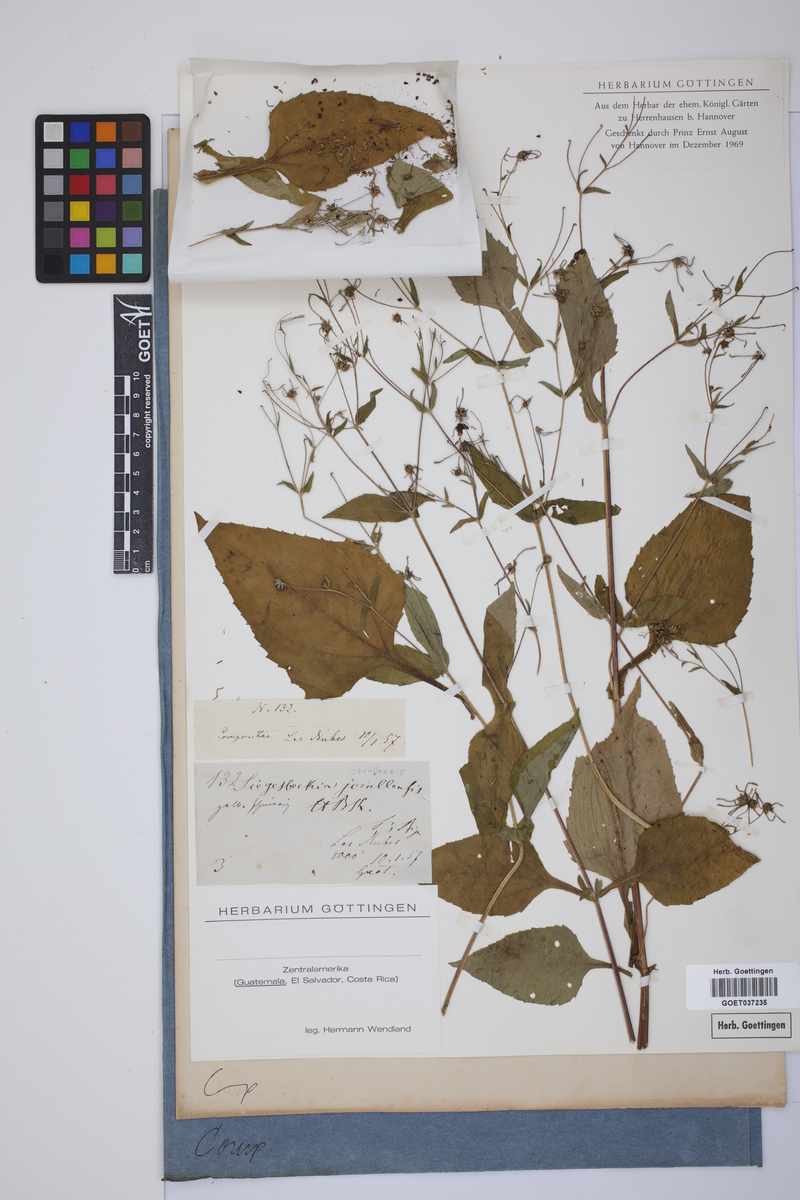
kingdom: Plantae
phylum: Tracheophyta
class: Magnoliopsida
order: Asterales
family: Asteraceae
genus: Sigesbeckia
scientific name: Sigesbeckia jorullensis
